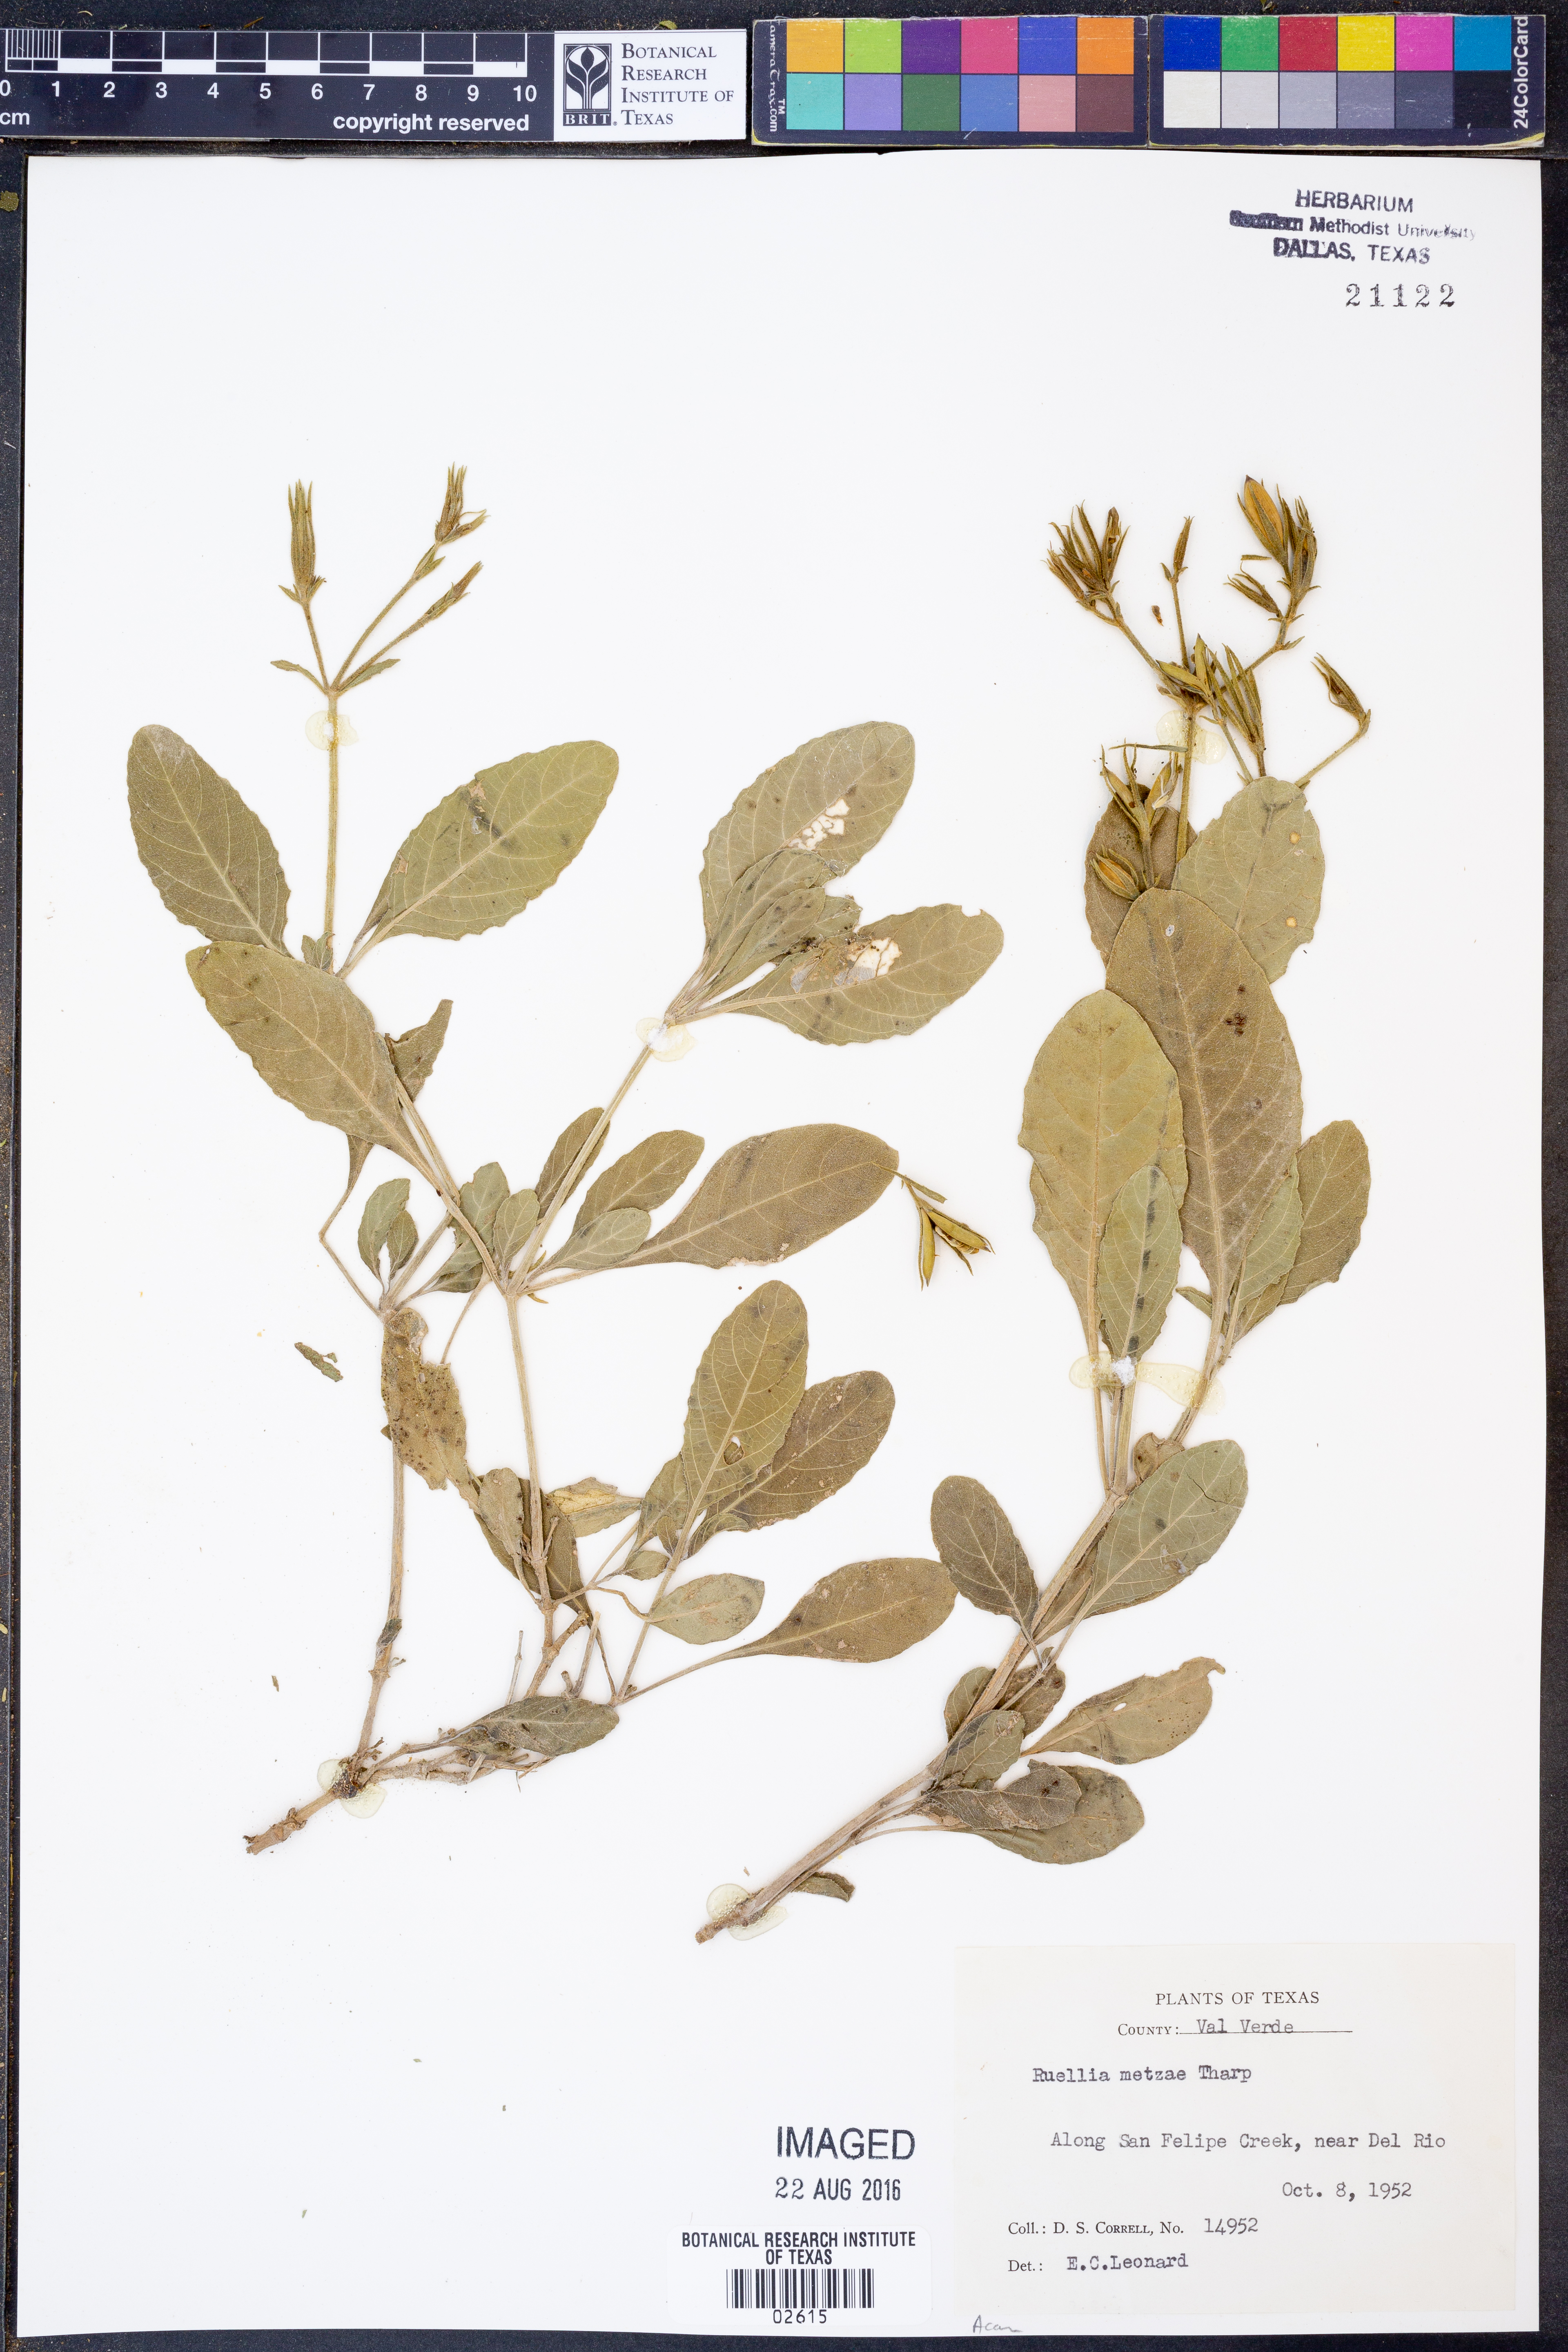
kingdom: Plantae
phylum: Tracheophyta
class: Magnoliopsida
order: Lamiales
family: Acanthaceae
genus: Ruellia
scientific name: Ruellia metzae
